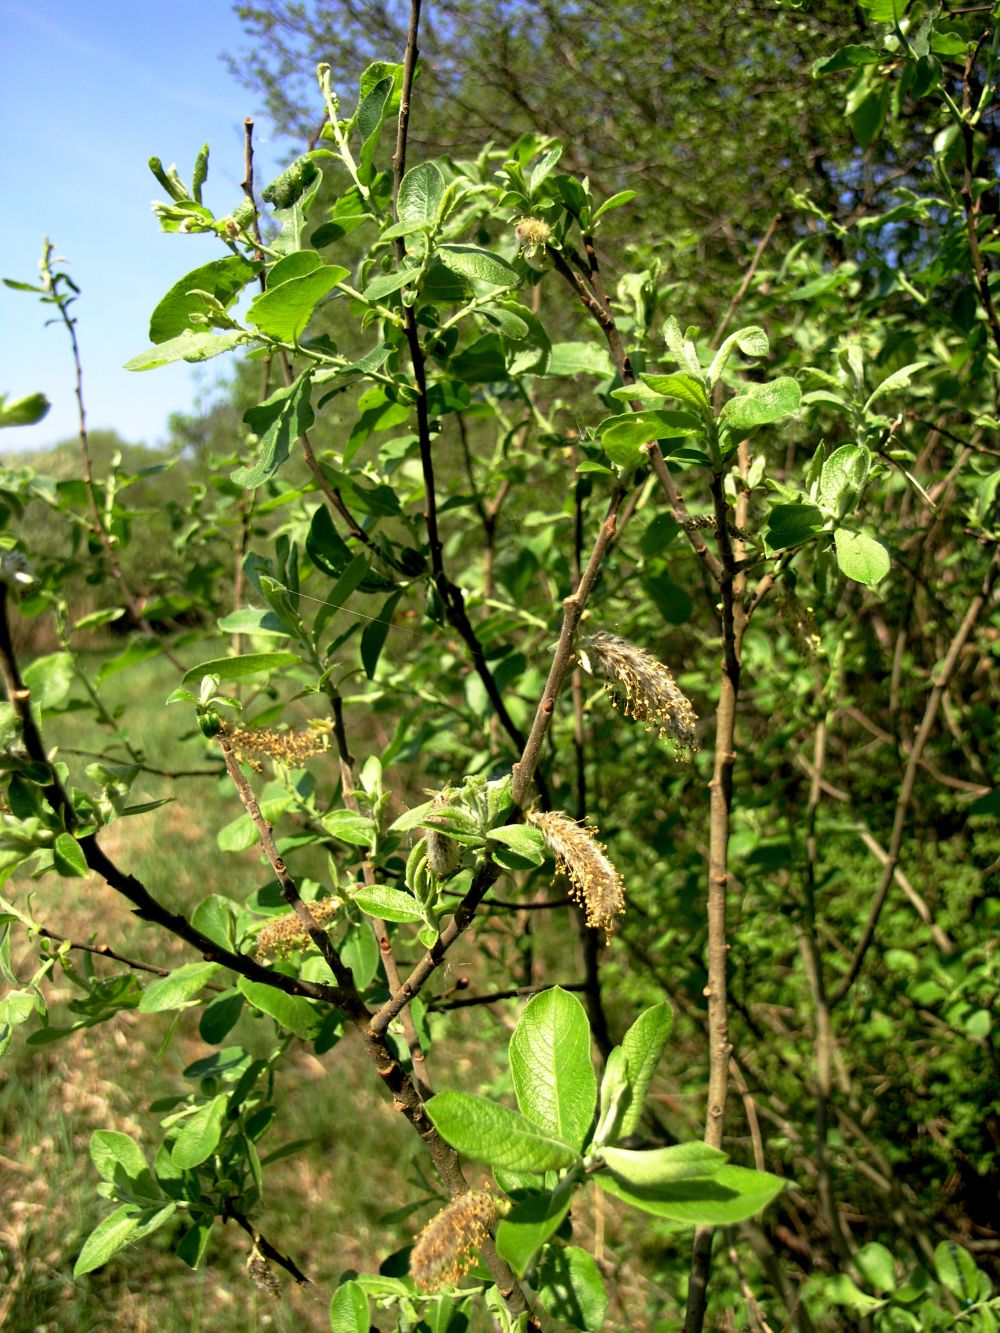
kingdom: Plantae
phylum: Tracheophyta
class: Magnoliopsida
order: Malpighiales
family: Salicaceae
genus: Salix
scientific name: Salix cinerea
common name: Common sallow
